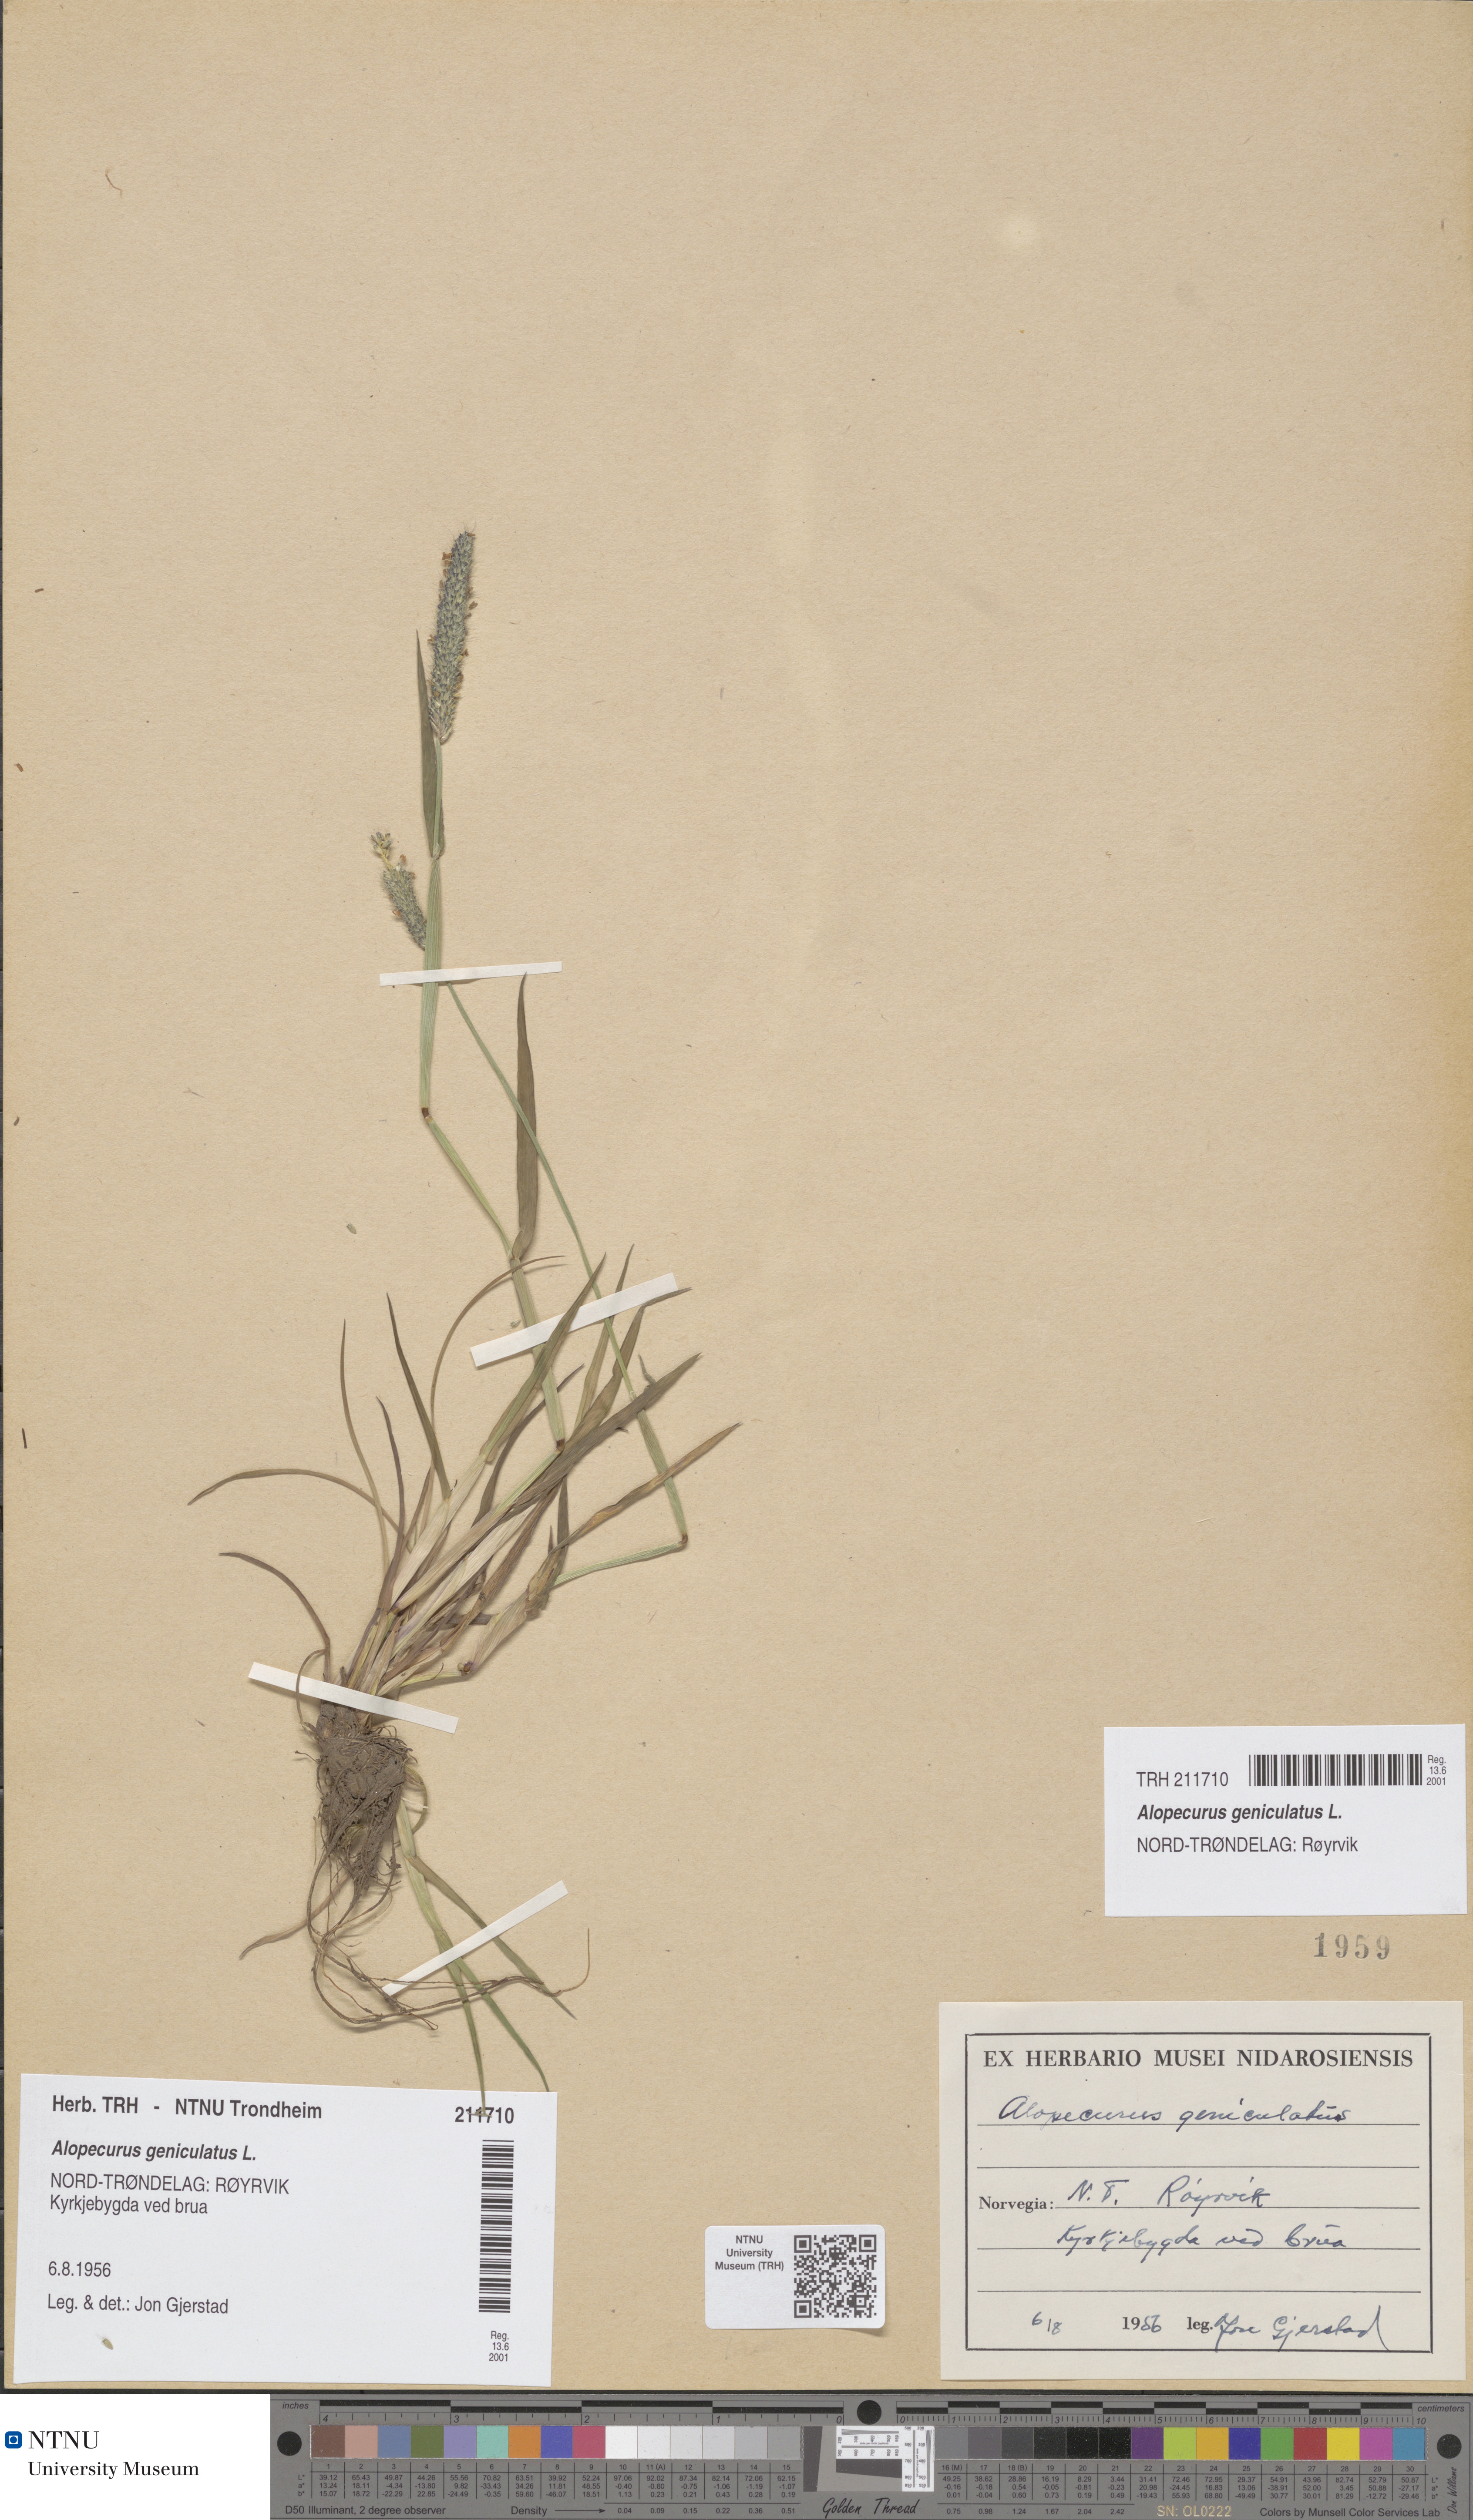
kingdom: Plantae
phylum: Tracheophyta
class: Liliopsida
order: Poales
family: Poaceae
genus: Alopecurus
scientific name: Alopecurus geniculatus
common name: Water foxtail
